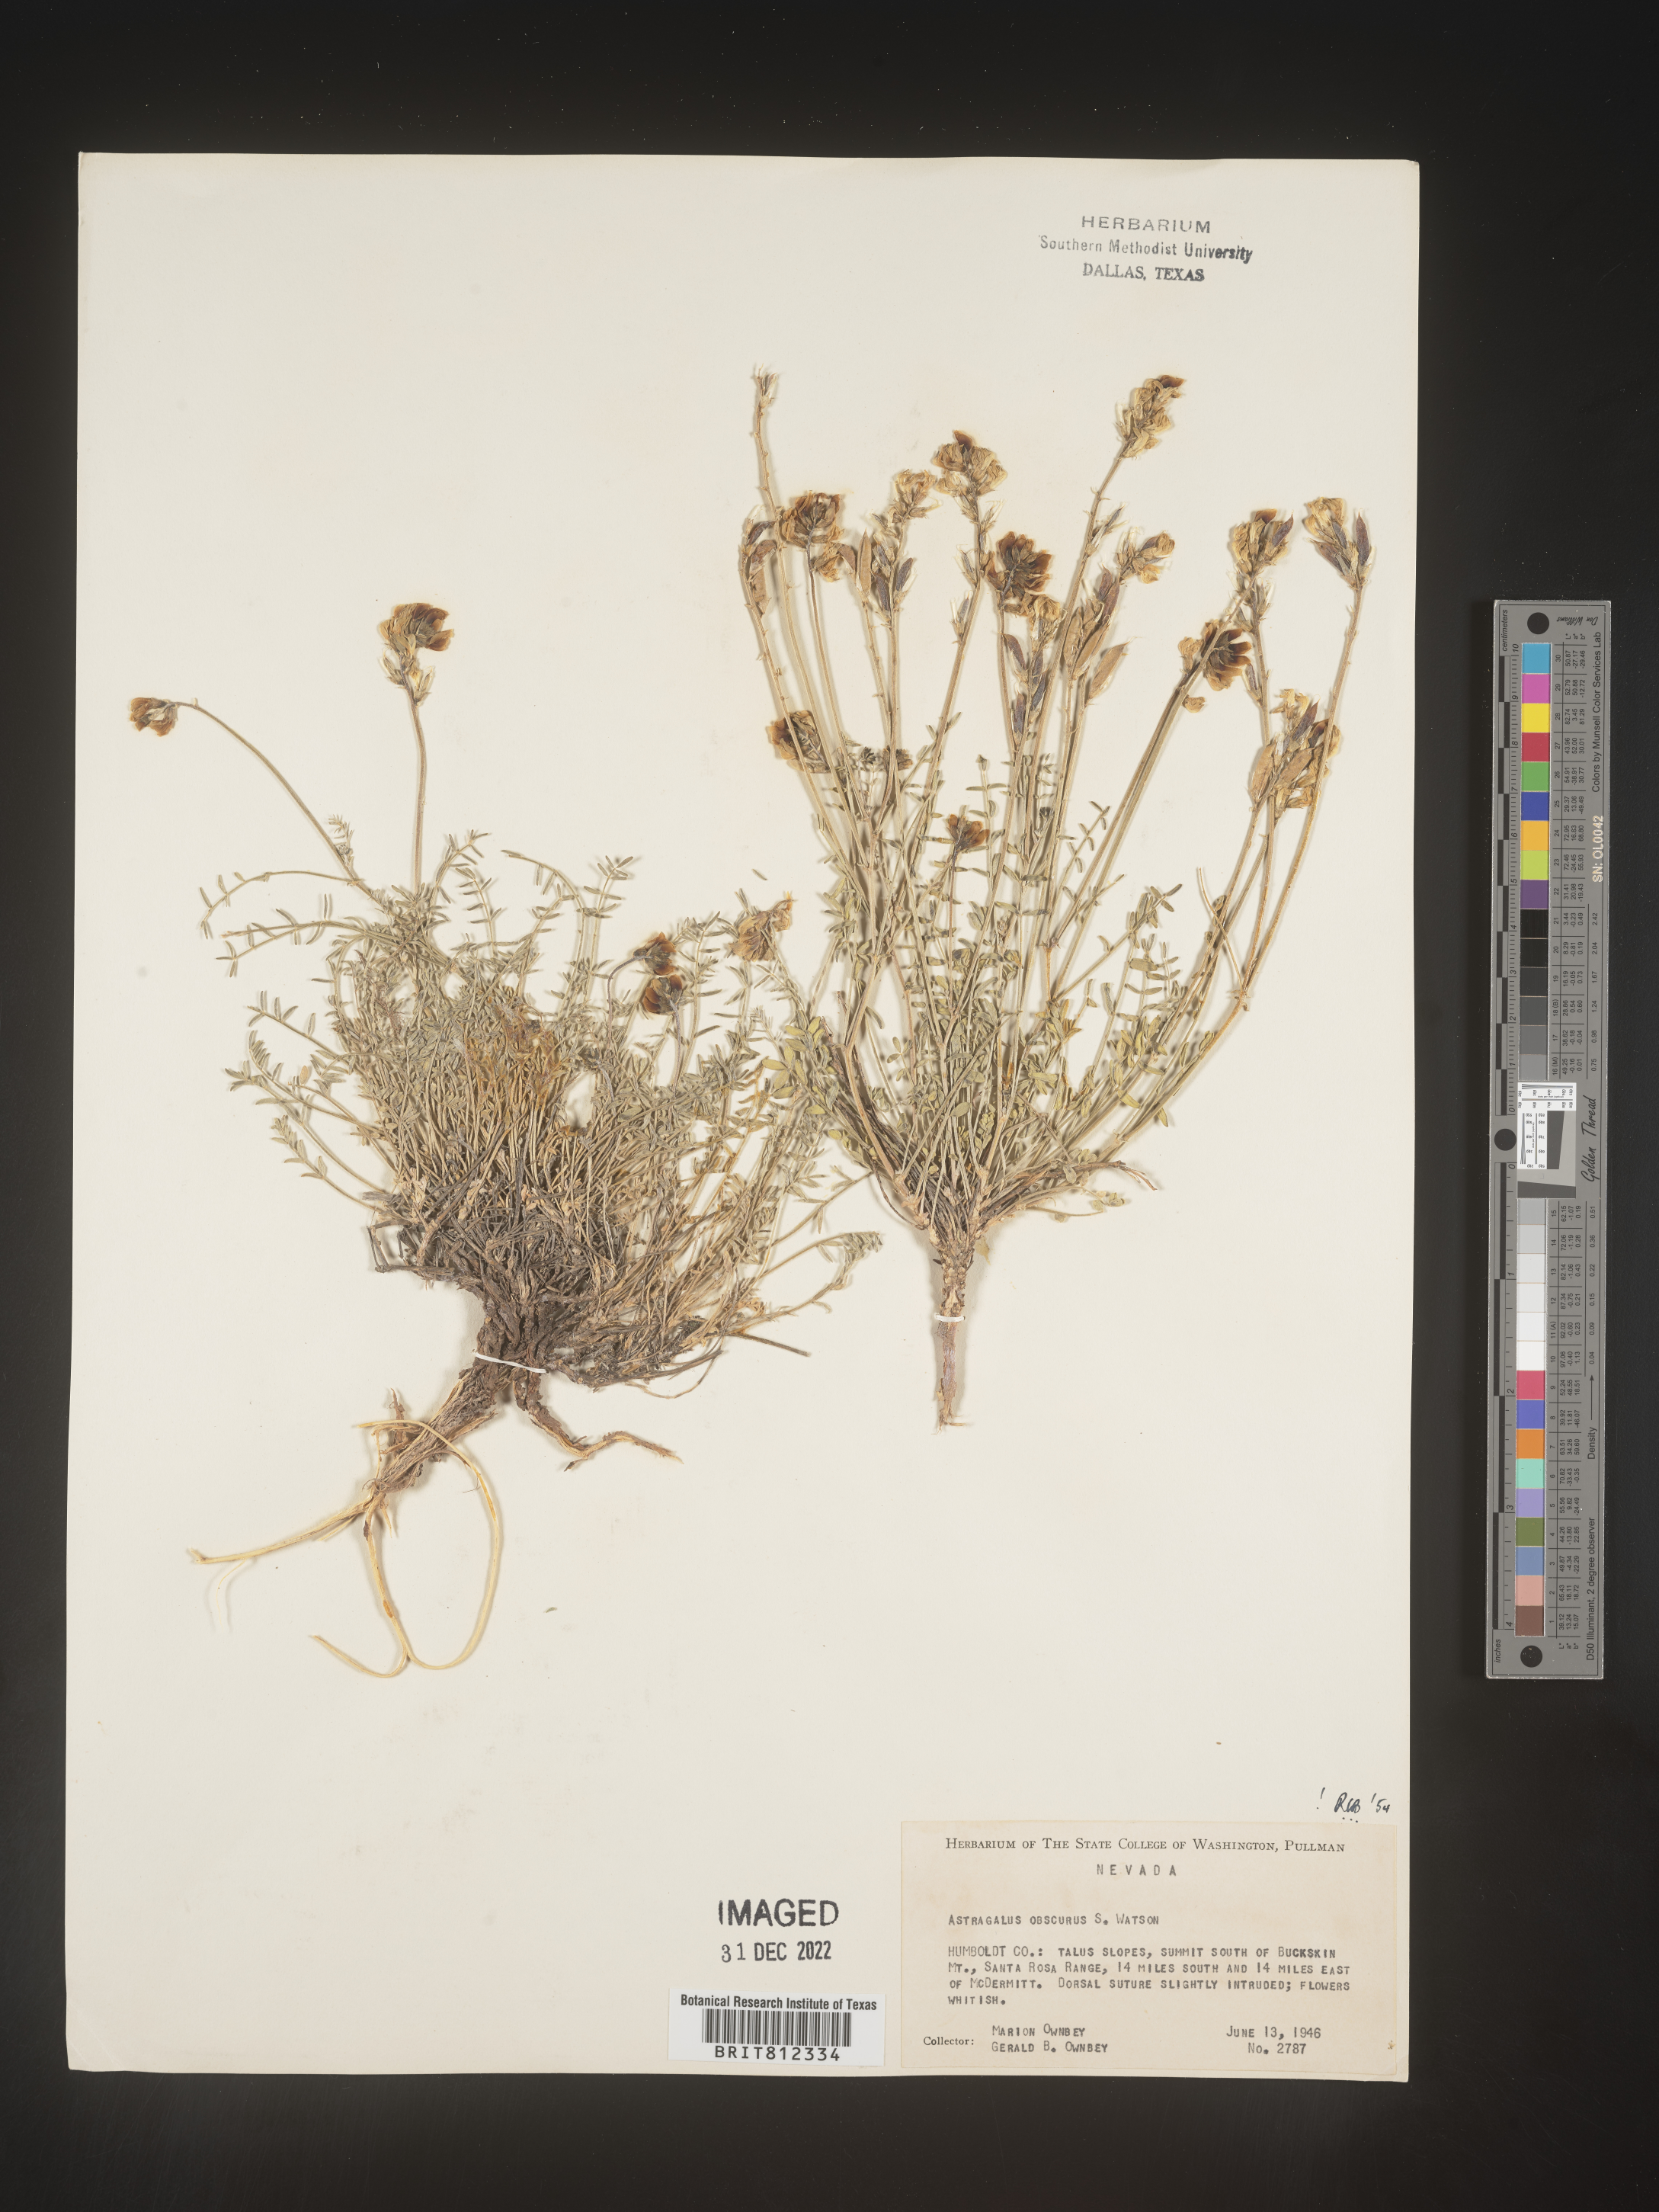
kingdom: Plantae
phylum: Tracheophyta
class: Magnoliopsida
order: Fabales
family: Fabaceae
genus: Astragalus
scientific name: Astragalus
